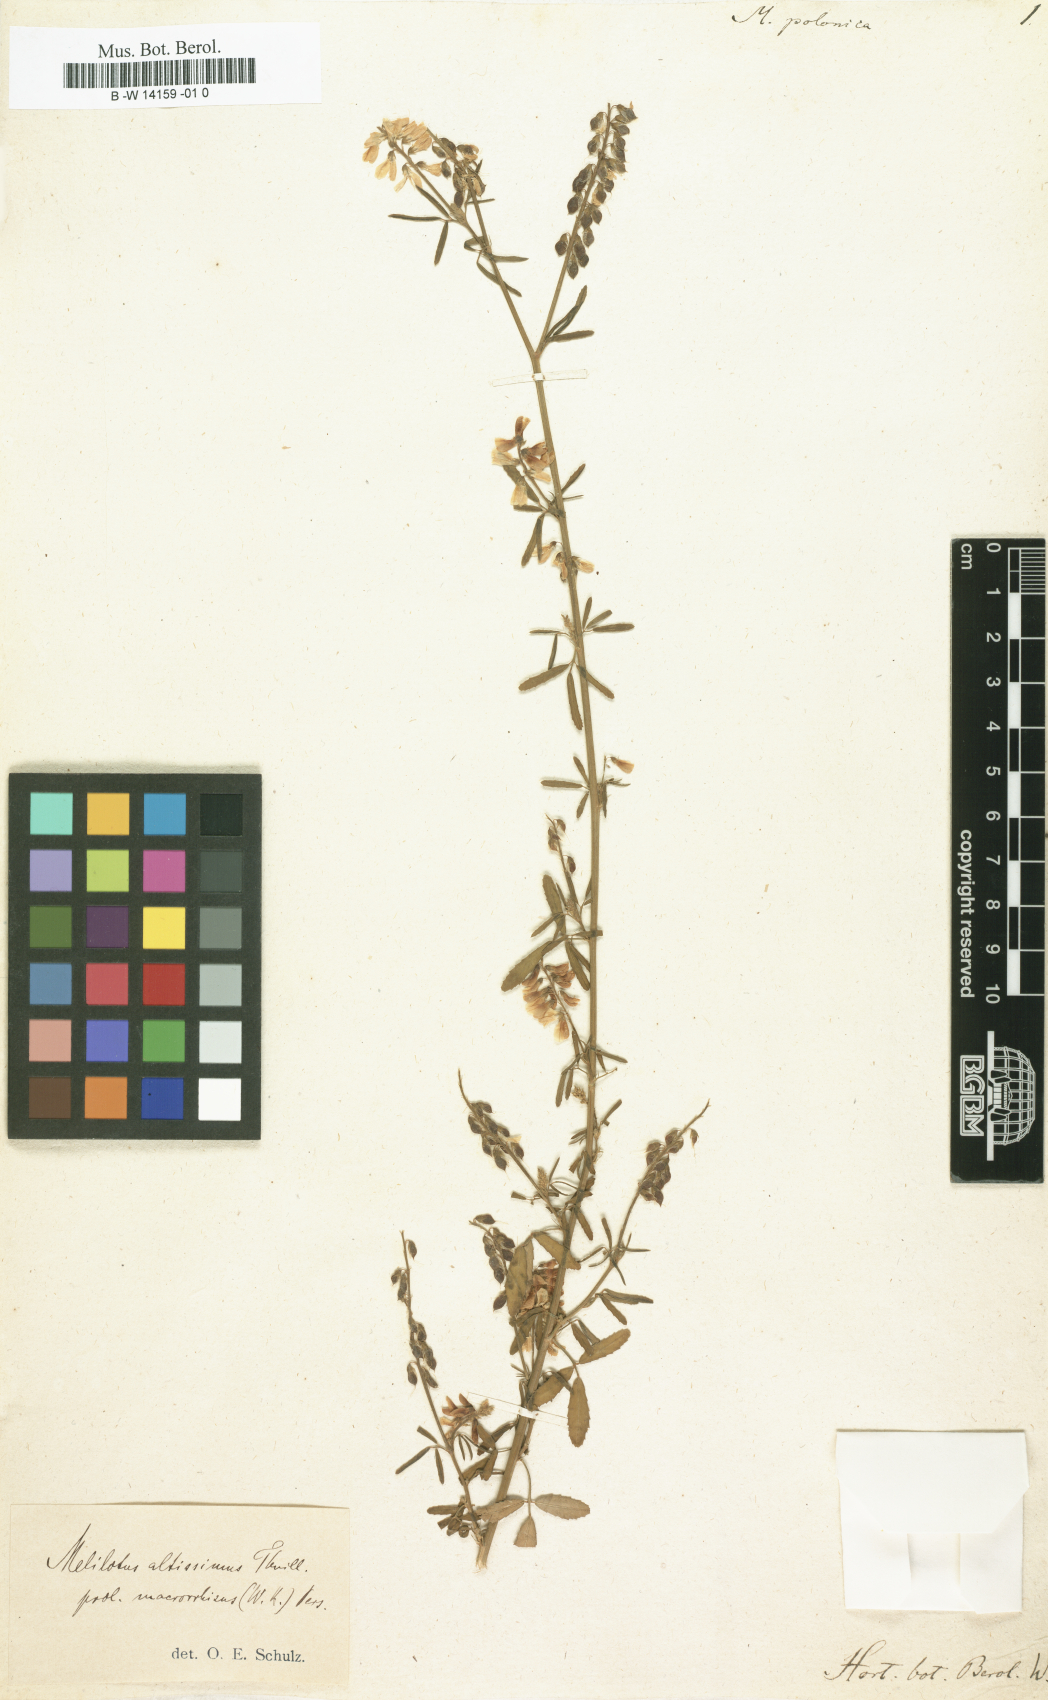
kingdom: Plantae
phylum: Tracheophyta
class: Magnoliopsida
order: Fabales
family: Fabaceae
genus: Melilotus
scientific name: Melilotus polonicus
